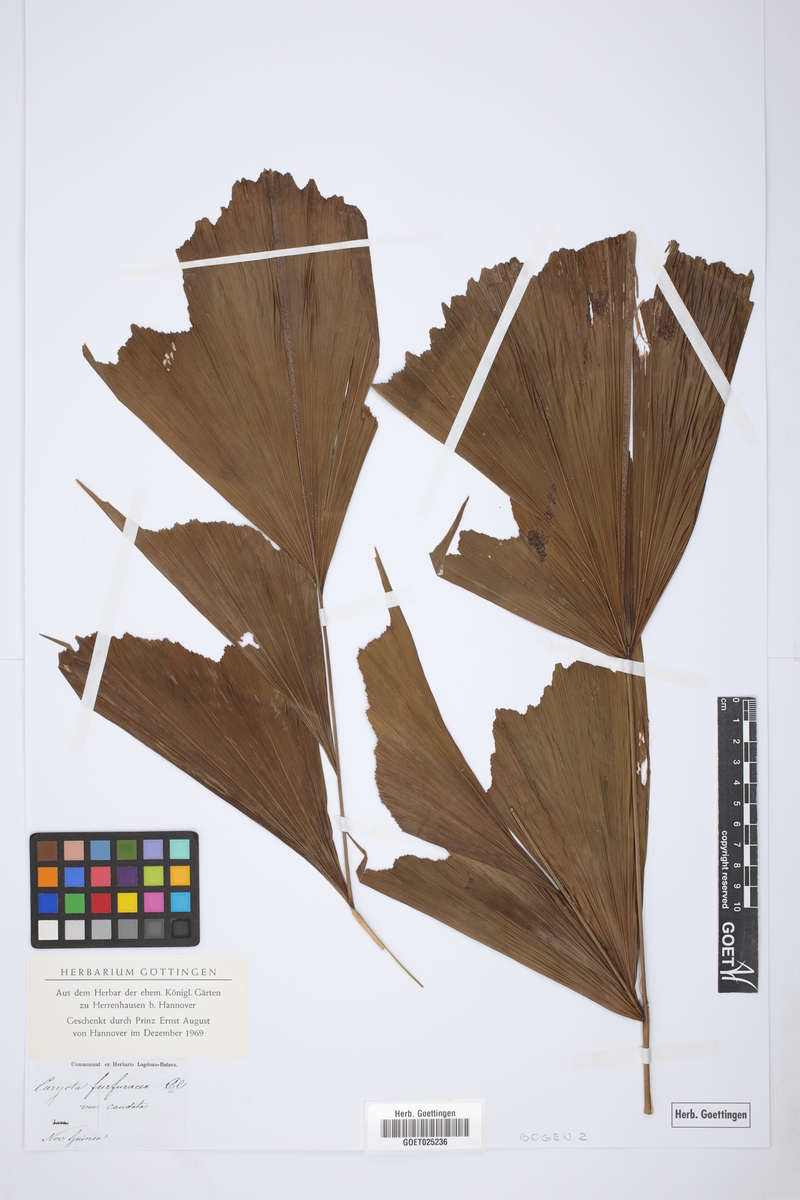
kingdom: Plantae
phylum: Tracheophyta
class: Liliopsida
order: Arecales
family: Arecaceae
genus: Caryota
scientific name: Caryota maxima
